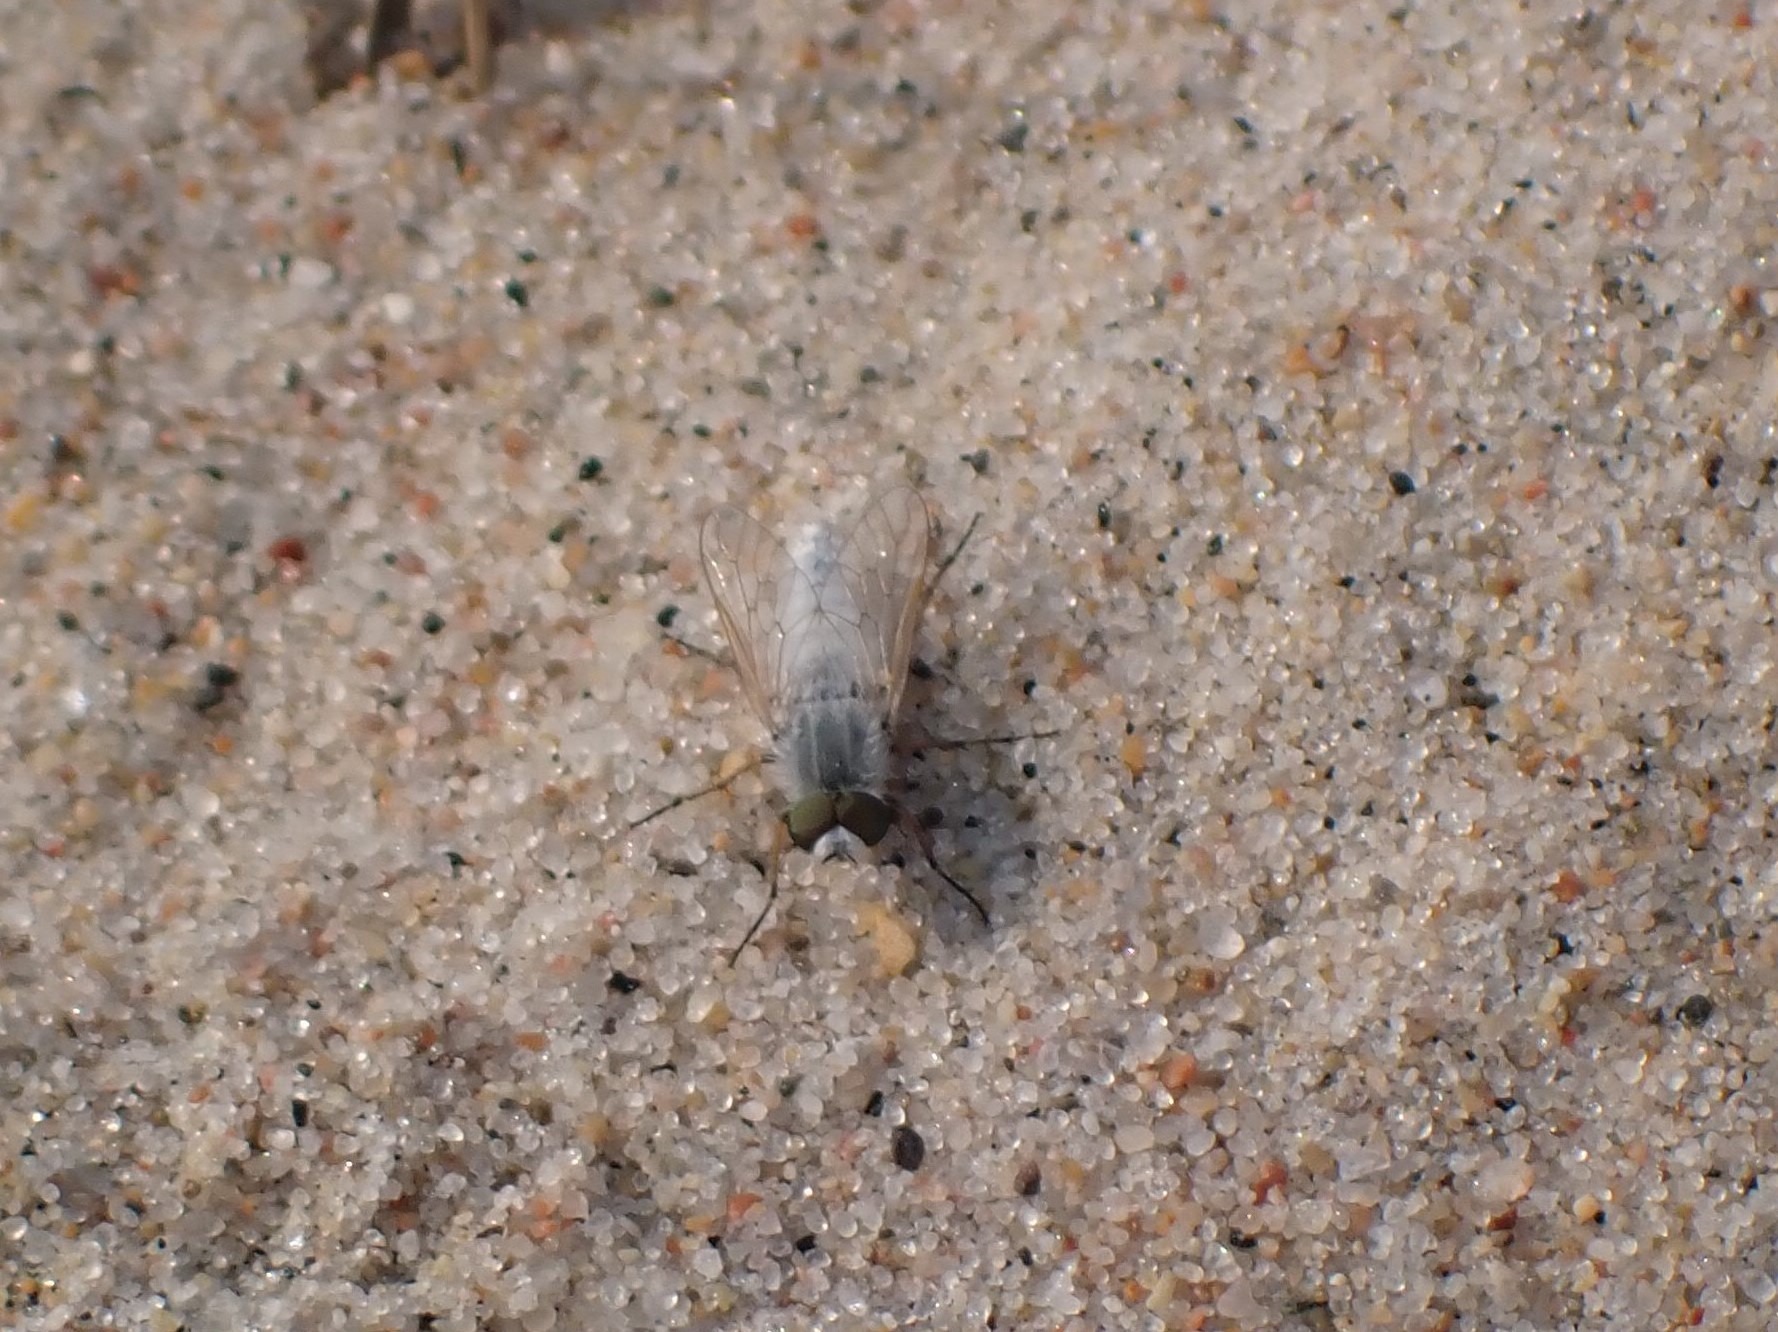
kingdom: Animalia
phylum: Arthropoda
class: Insecta
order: Diptera
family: Therevidae
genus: Acrosathe
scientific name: Acrosathe annulata
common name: Sølvhåret stiletflue
